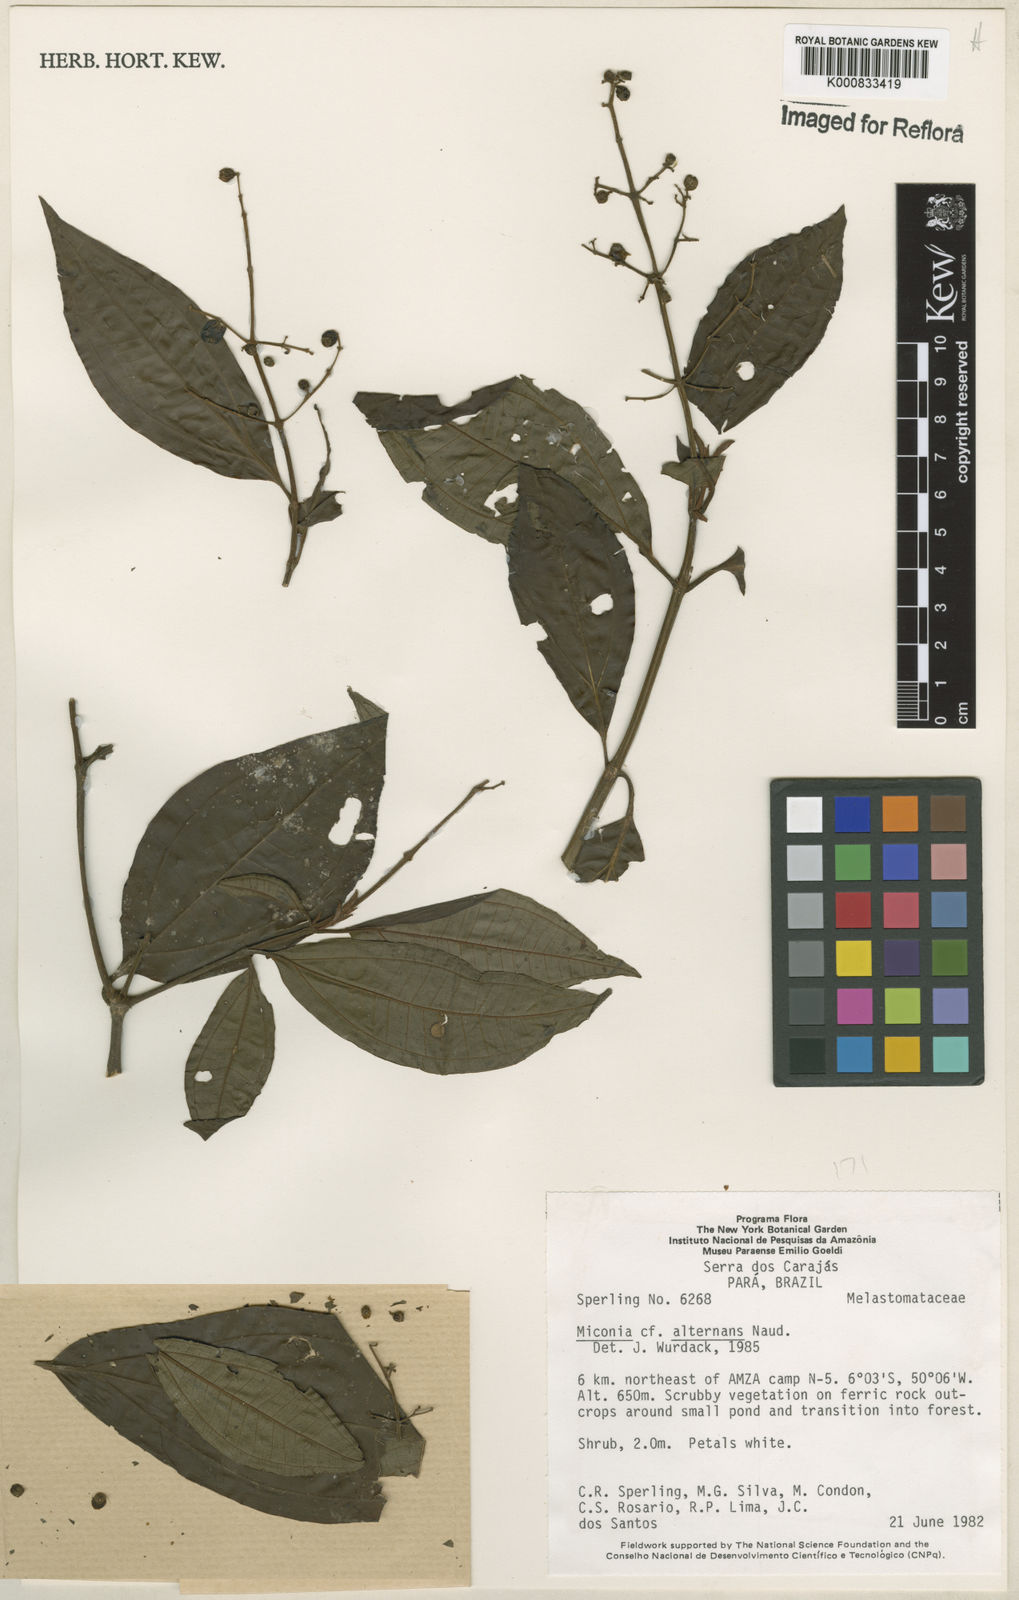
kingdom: Plantae
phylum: Tracheophyta
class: Magnoliopsida
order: Myrtales
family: Melastomataceae
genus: Miconia
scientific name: Miconia alternans
